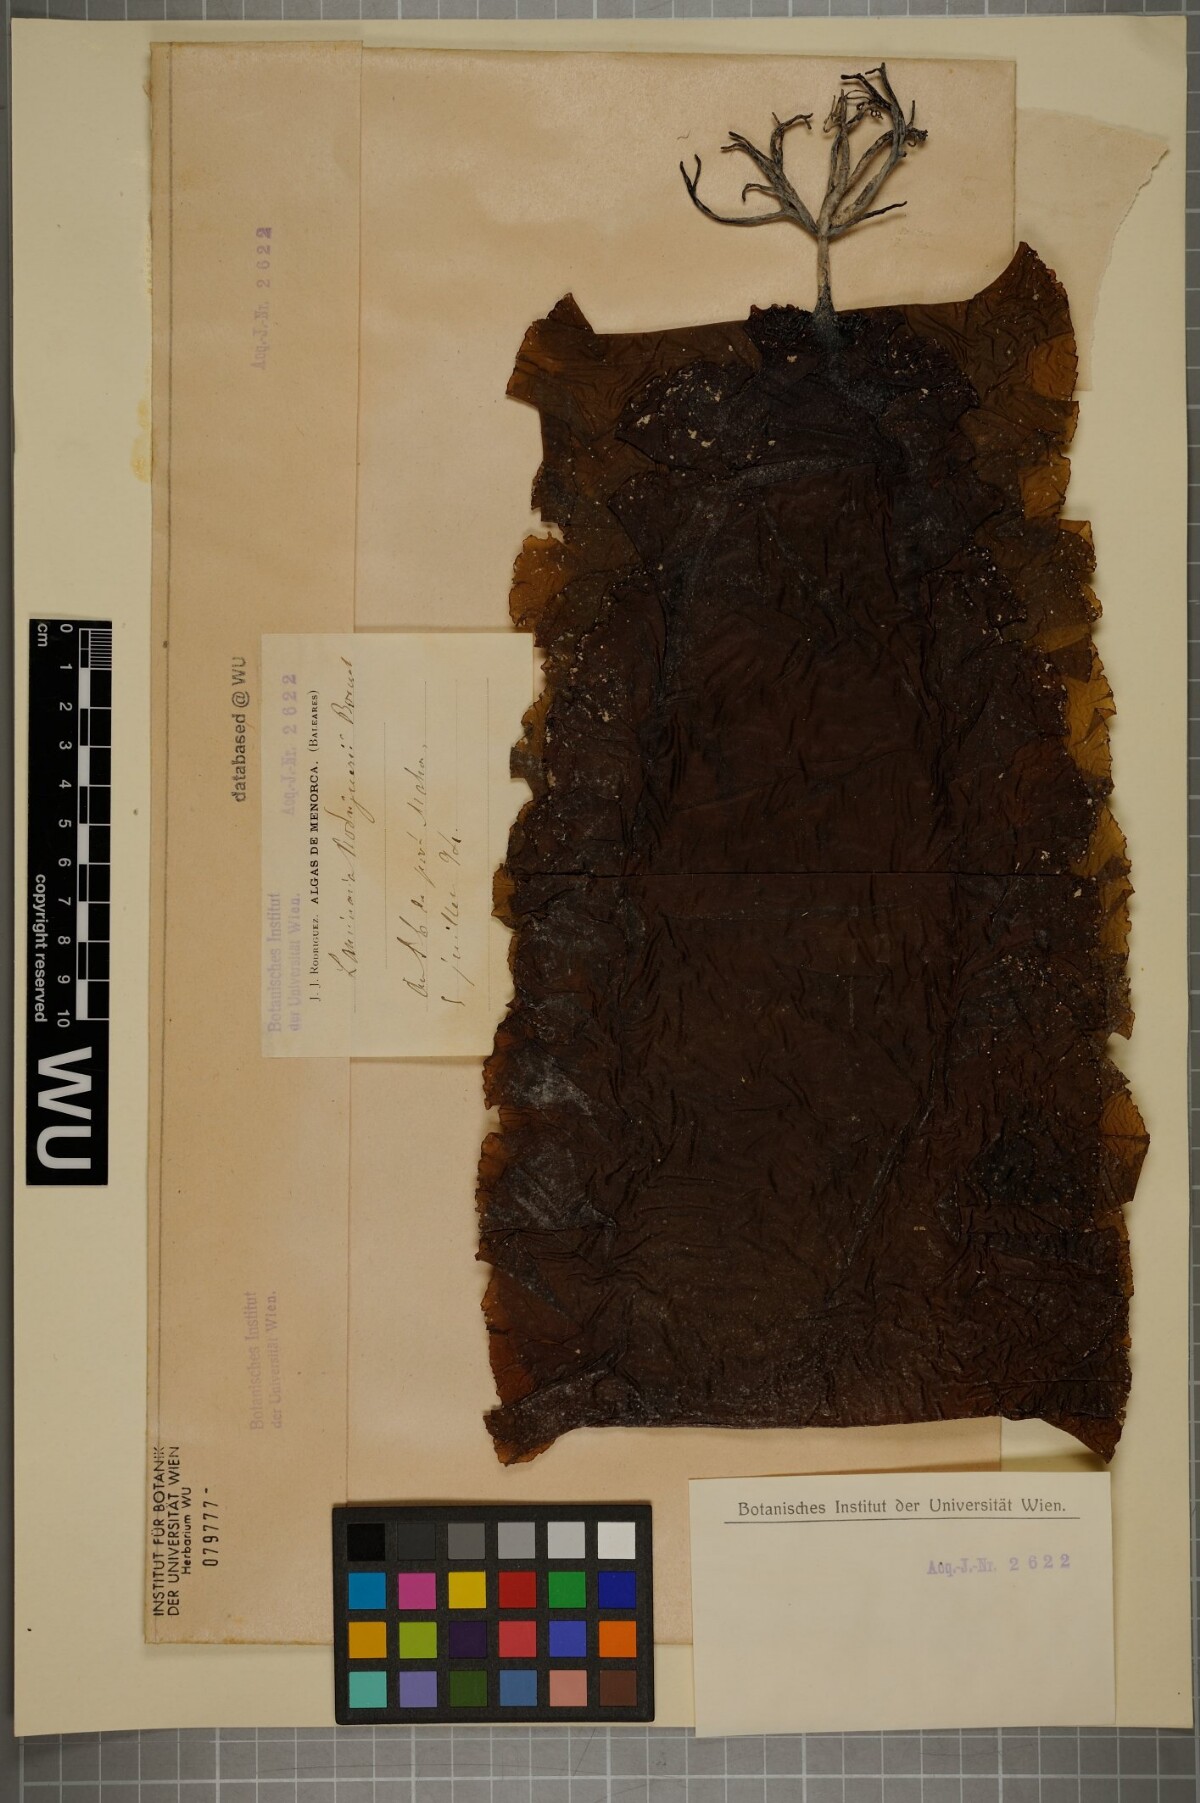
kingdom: Chromista
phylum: Ochrophyta
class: Phaeophyceae
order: Laminariales
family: Laminariaceae
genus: Laminaria
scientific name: Laminaria rodriguezii
